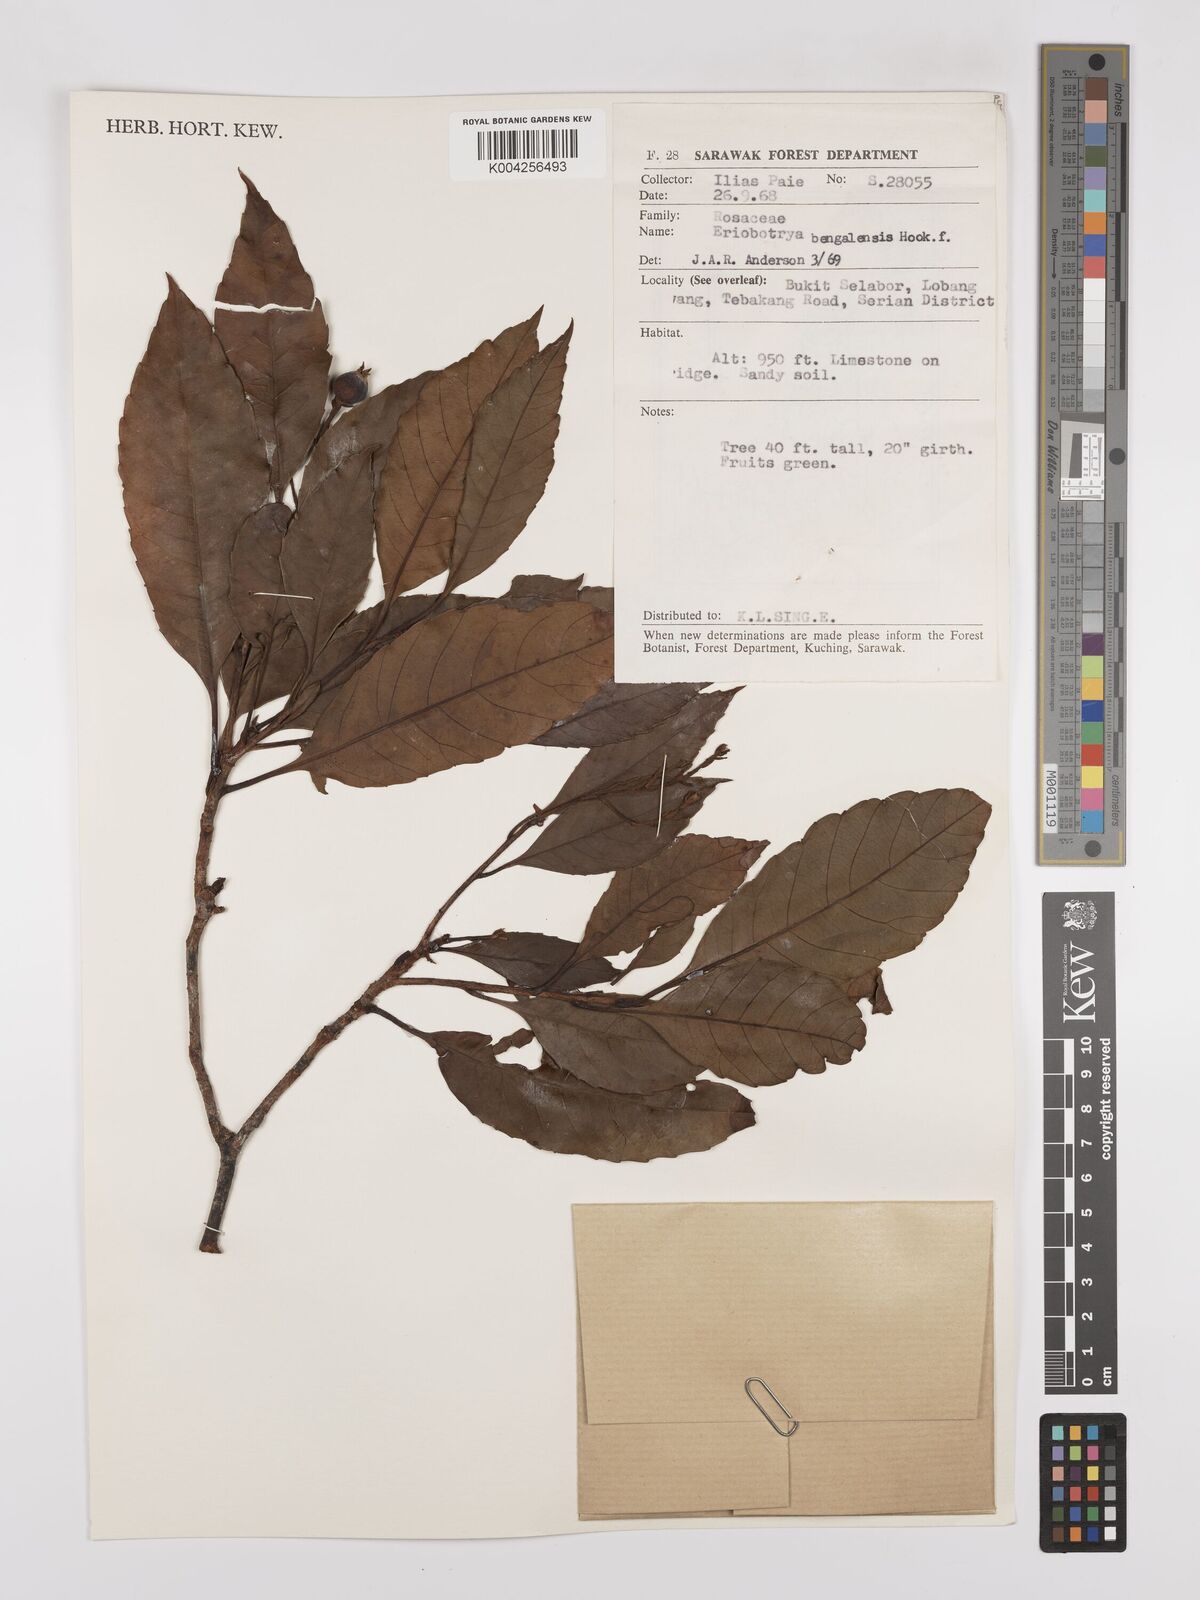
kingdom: Plantae
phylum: Tracheophyta
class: Magnoliopsida
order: Rosales
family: Rosaceae
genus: Rhaphiolepis
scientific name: Rhaphiolepis bengalensis
